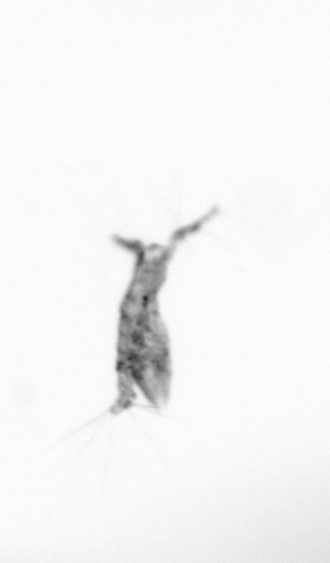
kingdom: Animalia
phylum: Arthropoda
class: Copepoda
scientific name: Copepoda
